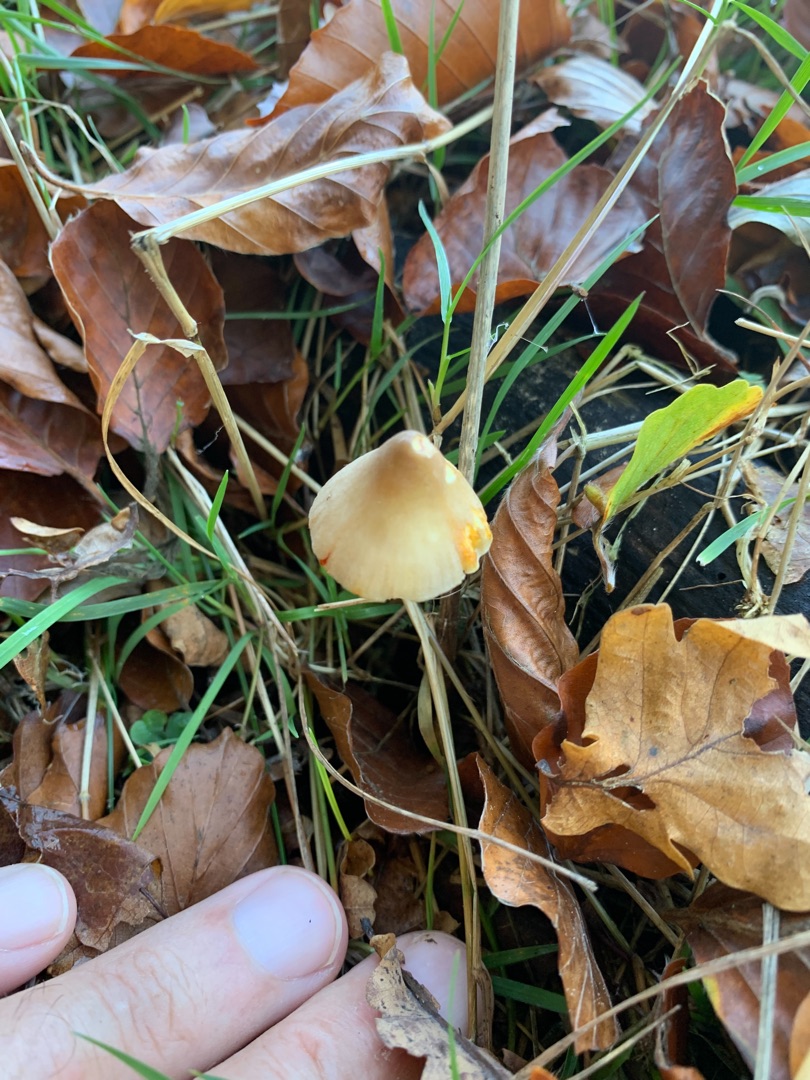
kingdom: Fungi
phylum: Basidiomycota
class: Agaricomycetes
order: Agaricales
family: Mycenaceae
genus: Mycena
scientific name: Mycena crocata
